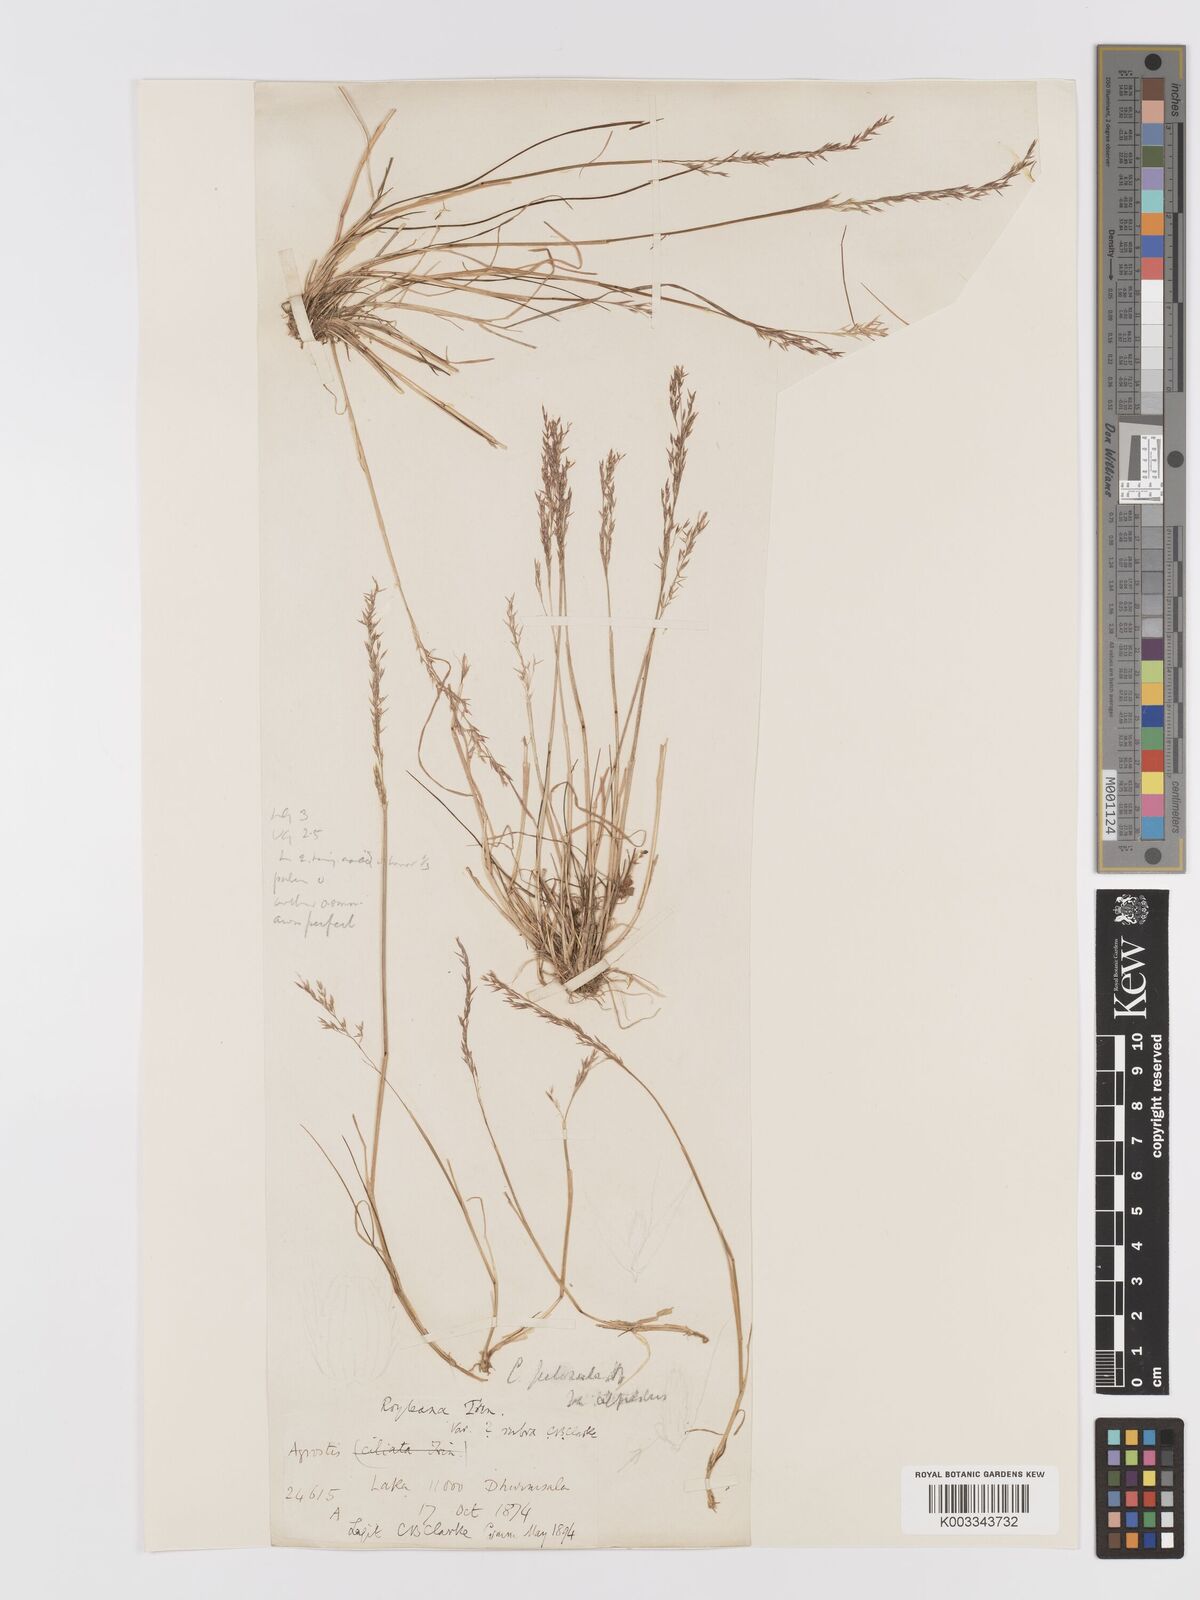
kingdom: Plantae
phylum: Tracheophyta
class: Liliopsida
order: Poales
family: Poaceae
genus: Agrostis
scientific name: Agrostis pilosula
